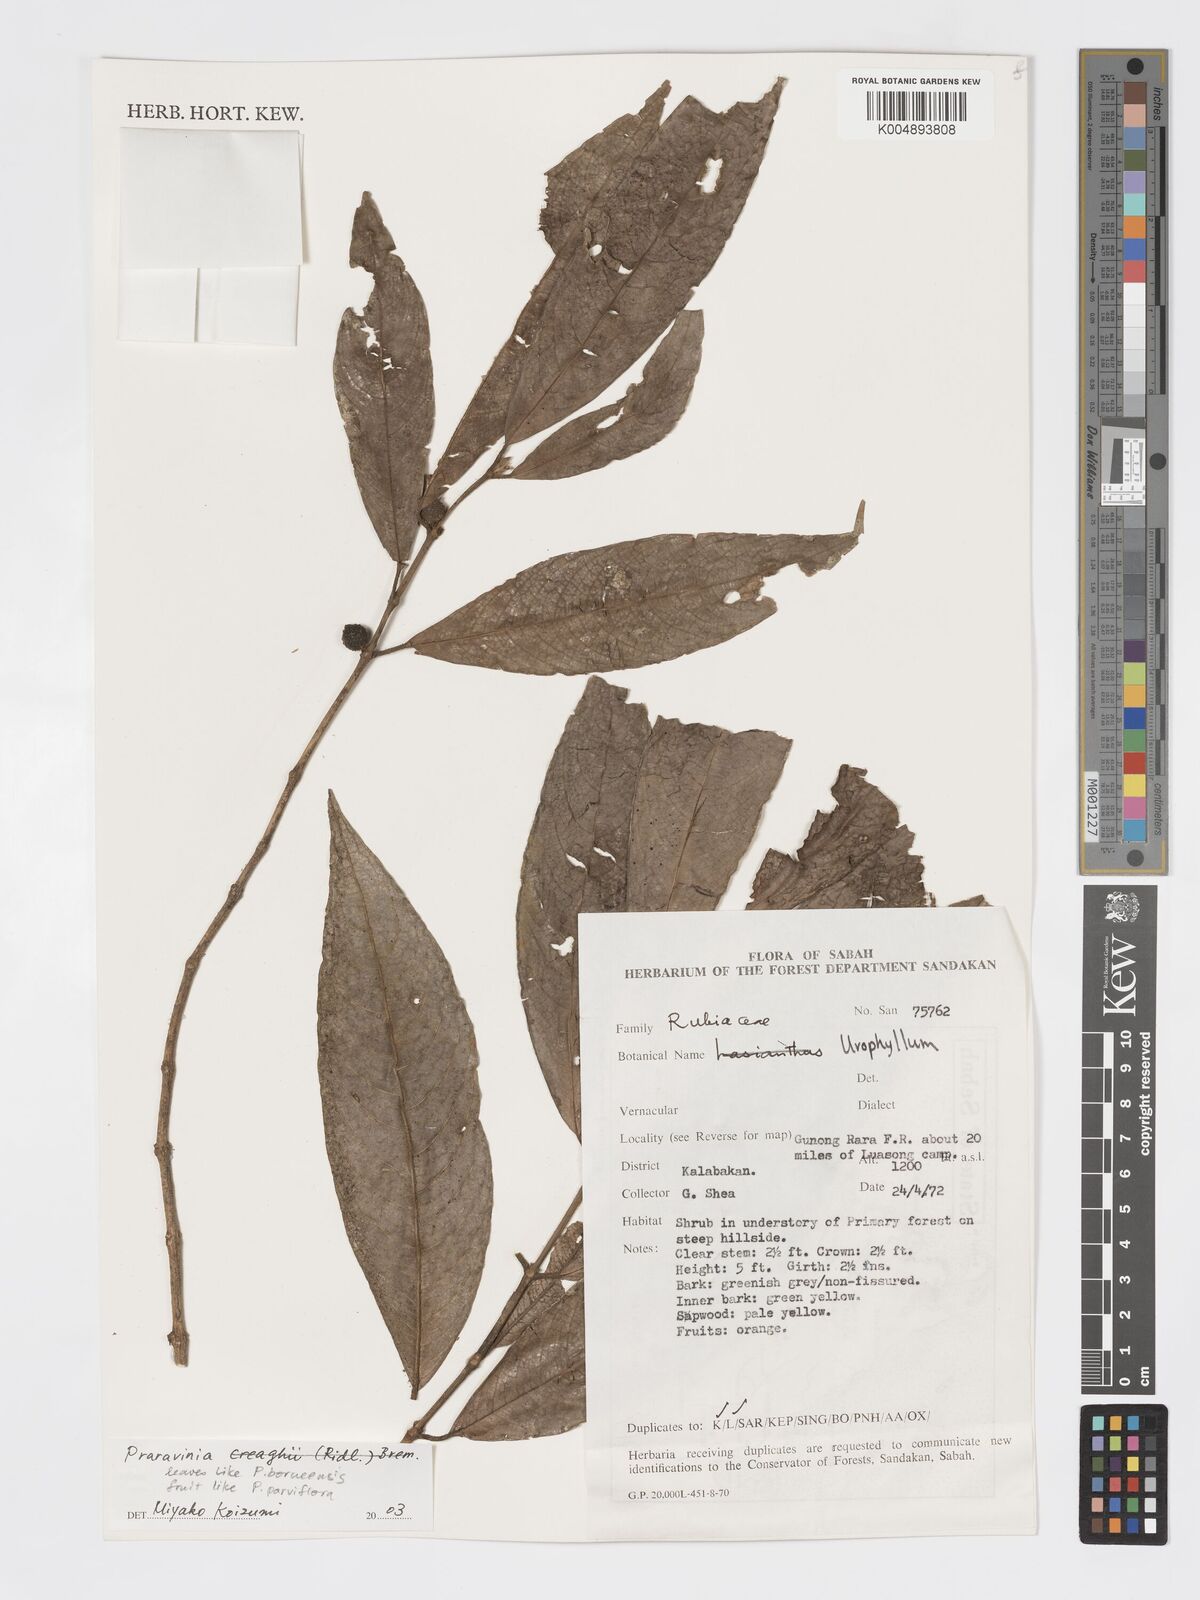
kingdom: Plantae
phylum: Tracheophyta
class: Magnoliopsida
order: Gentianales
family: Rubiaceae
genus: Praravinia
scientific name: Praravinia borneensis
